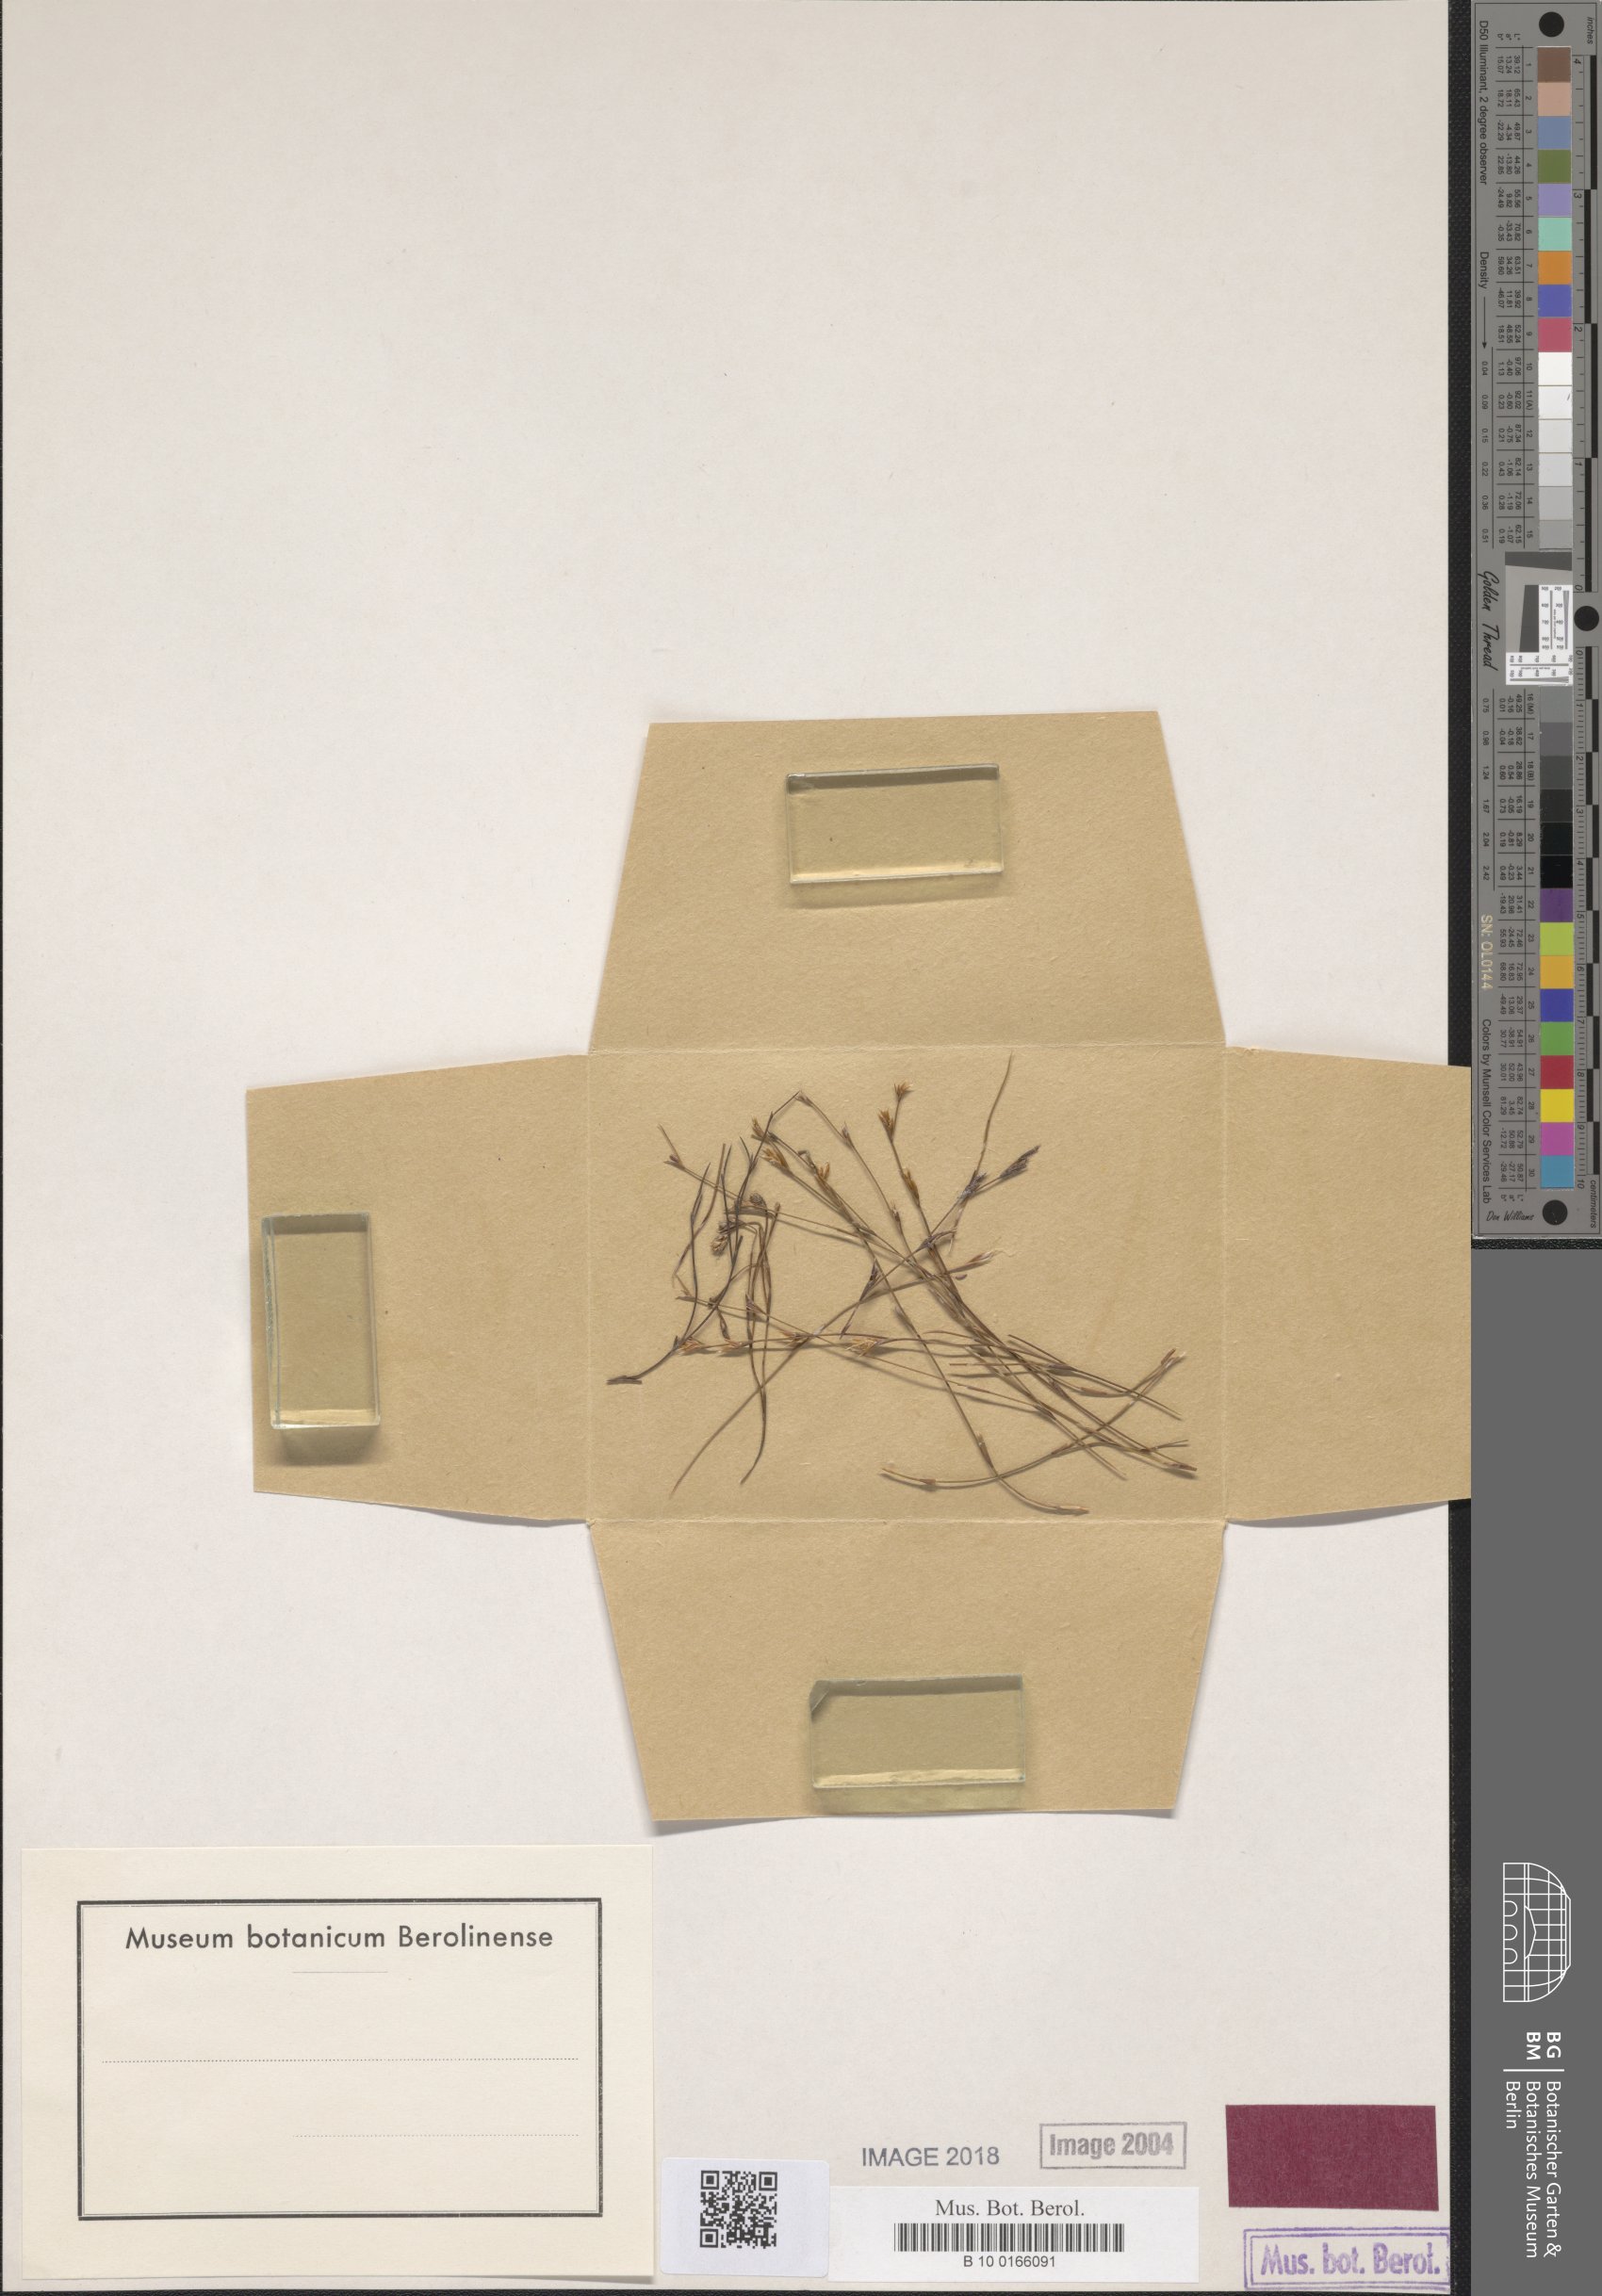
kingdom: Plantae
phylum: Tracheophyta
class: Liliopsida
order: Poales
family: Restionaceae
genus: Restio
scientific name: Restio nudiflorus
